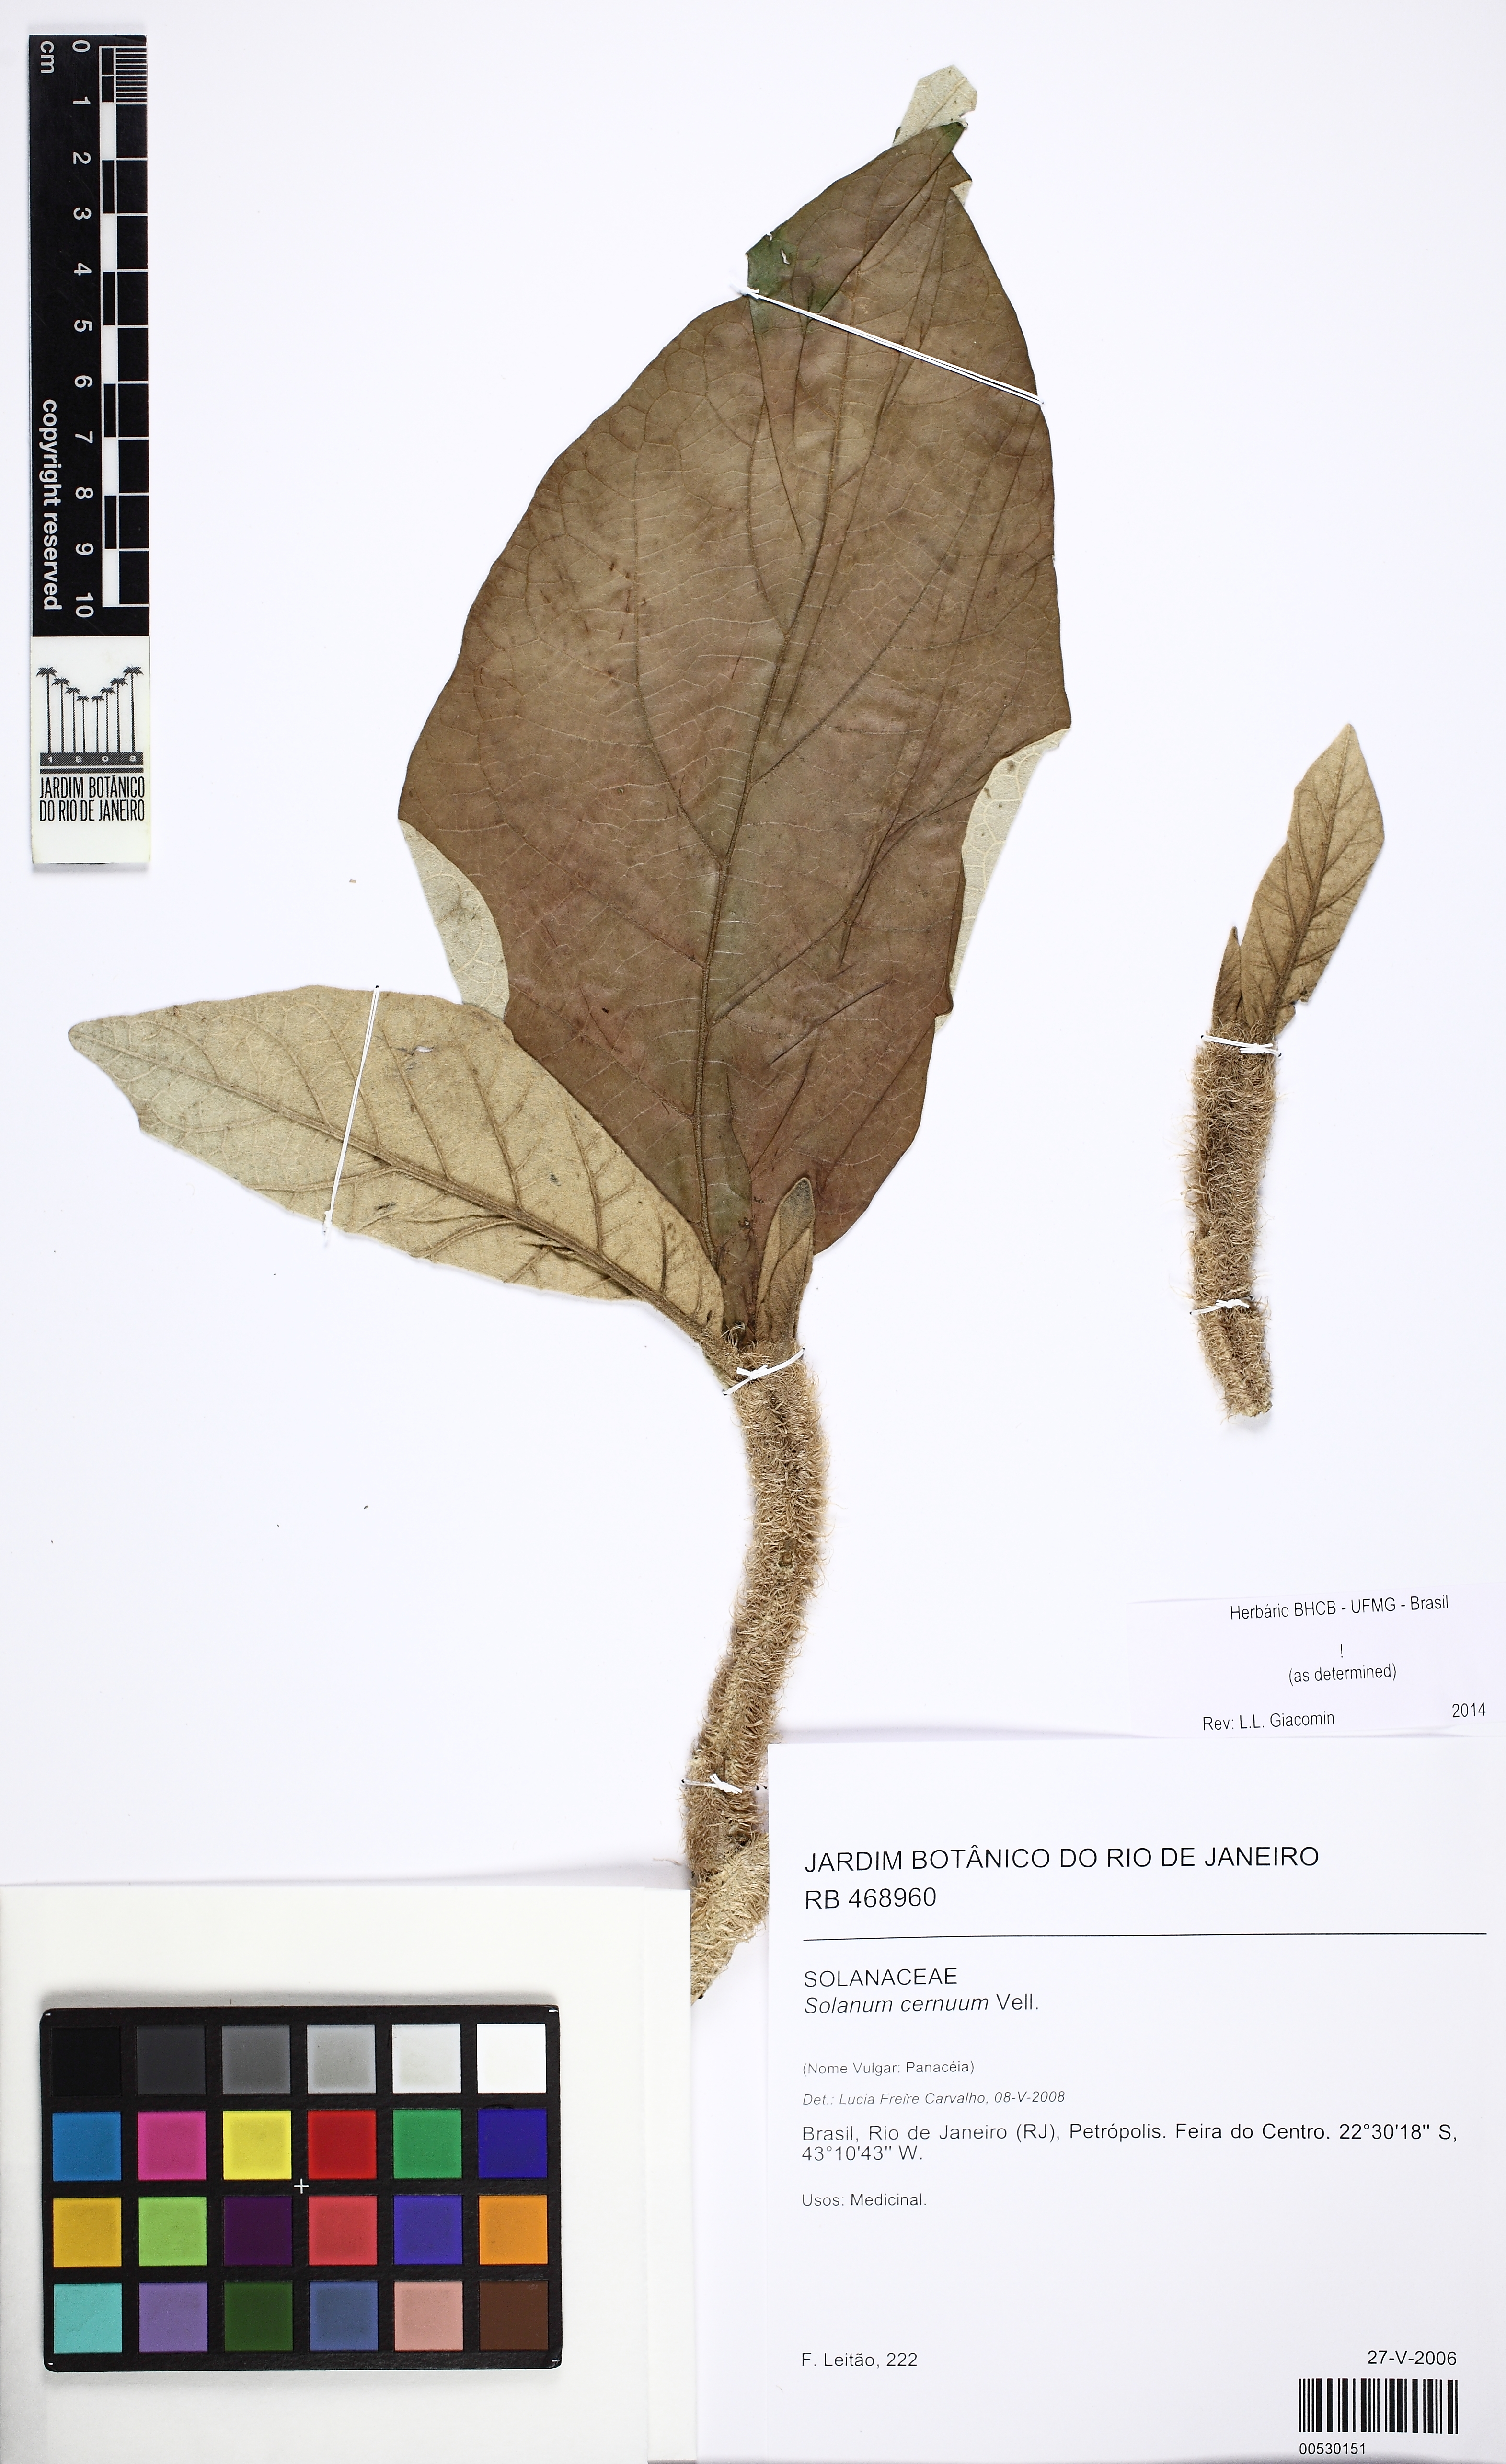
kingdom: Plantae
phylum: Tracheophyta
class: Magnoliopsida
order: Solanales
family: Solanaceae
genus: Solanum
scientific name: Solanum cernuum
